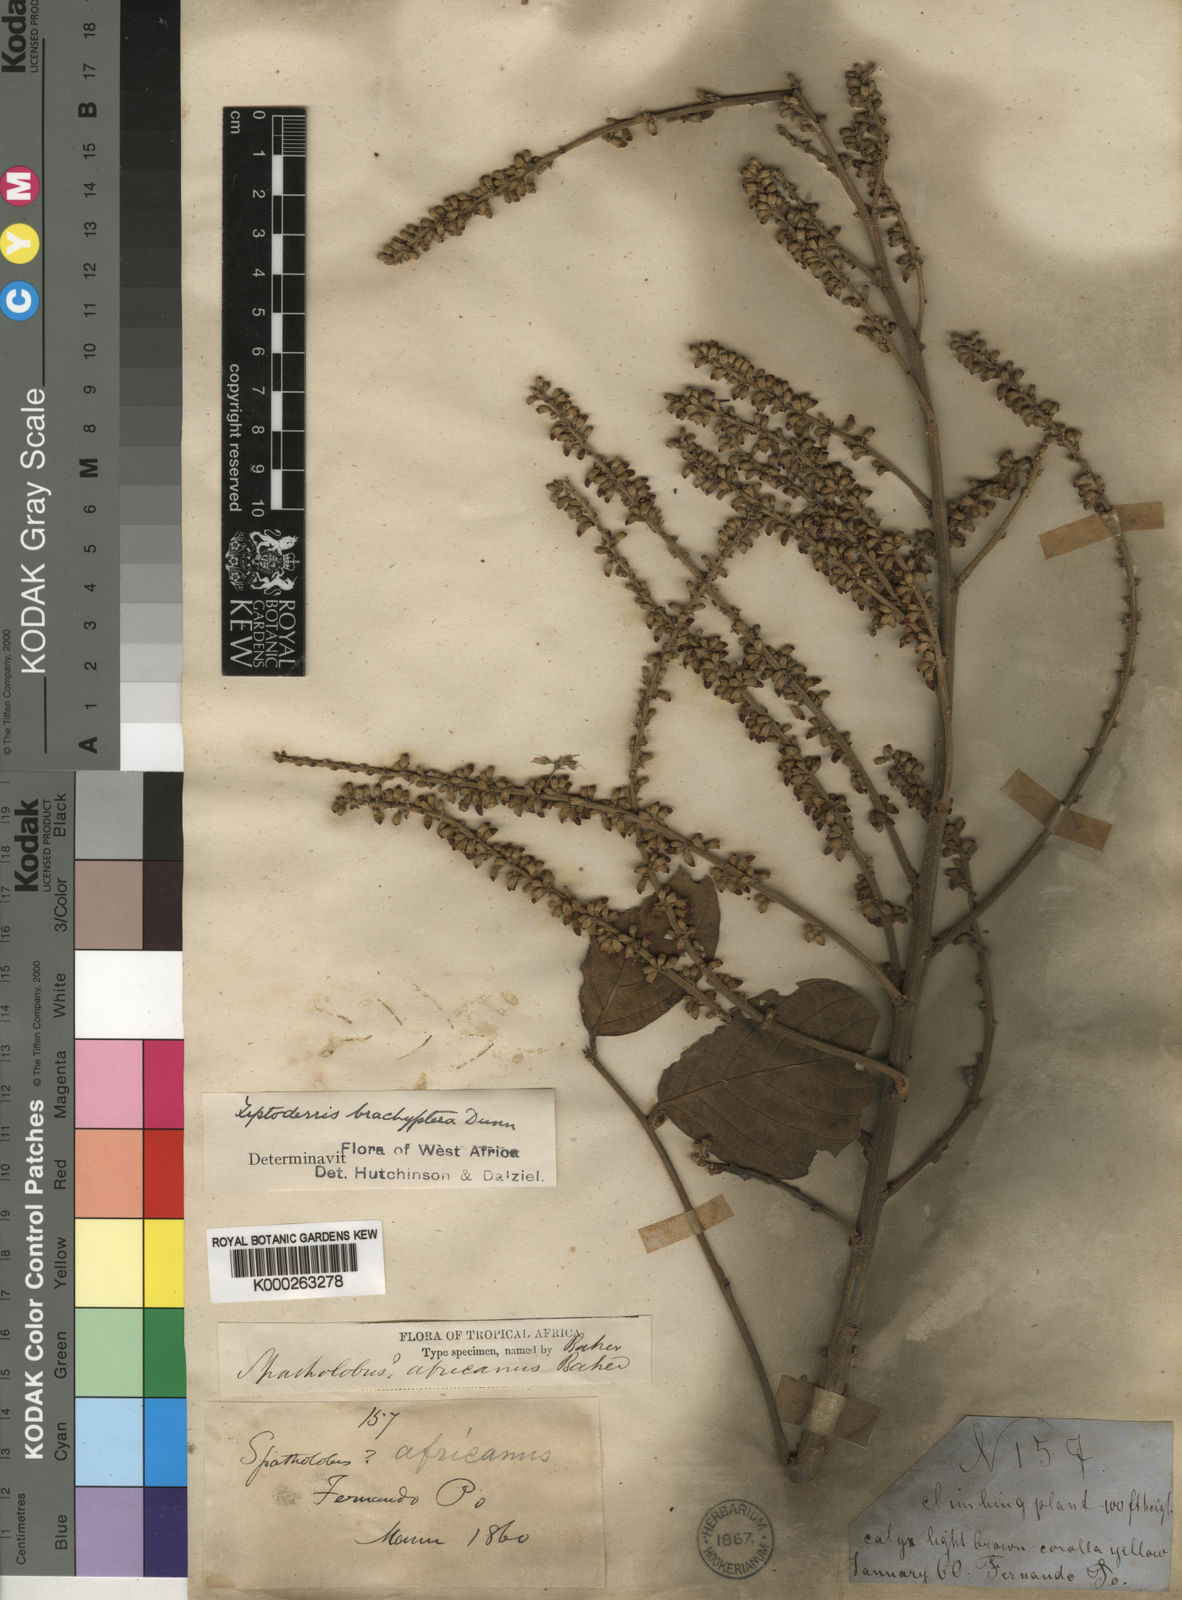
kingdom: Plantae
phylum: Tracheophyta
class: Magnoliopsida
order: Fabales
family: Fabaceae
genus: Leptoderris
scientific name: Leptoderris brachyptera
